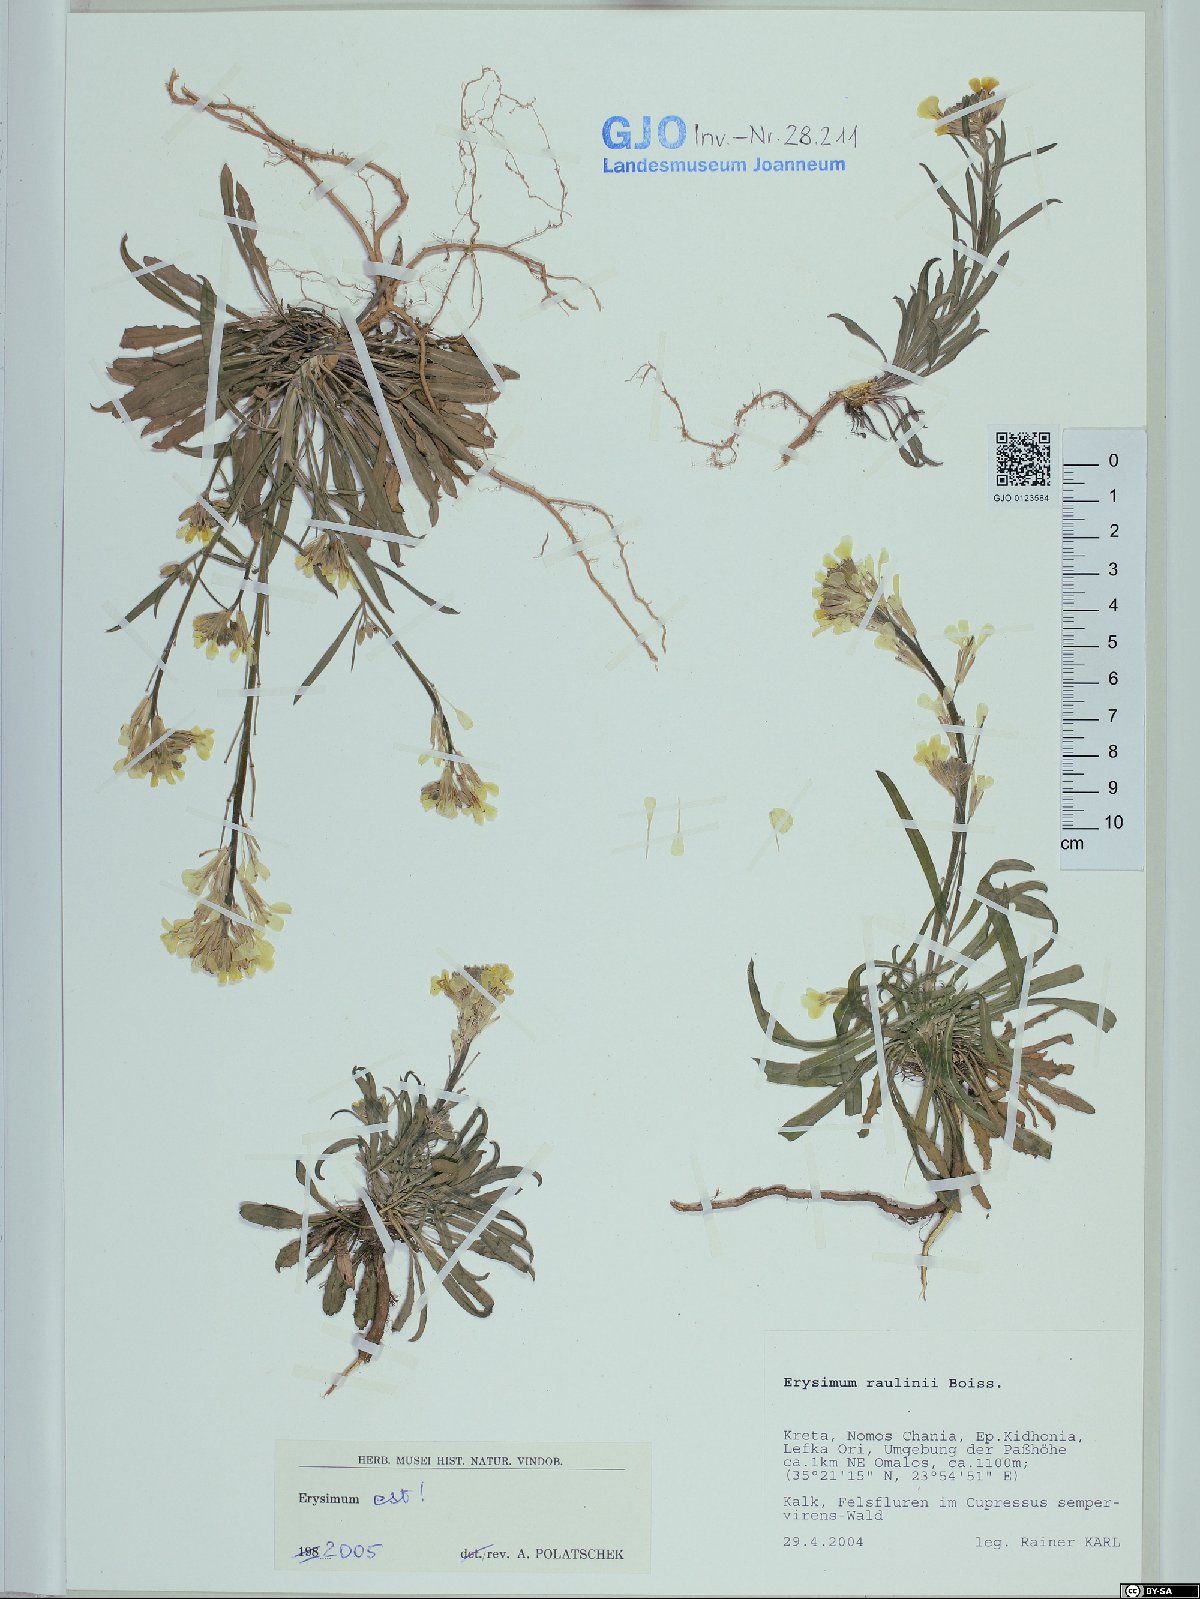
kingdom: Plantae
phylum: Tracheophyta
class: Magnoliopsida
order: Brassicales
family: Brassicaceae
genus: Erysimum
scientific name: Erysimum raulinii
